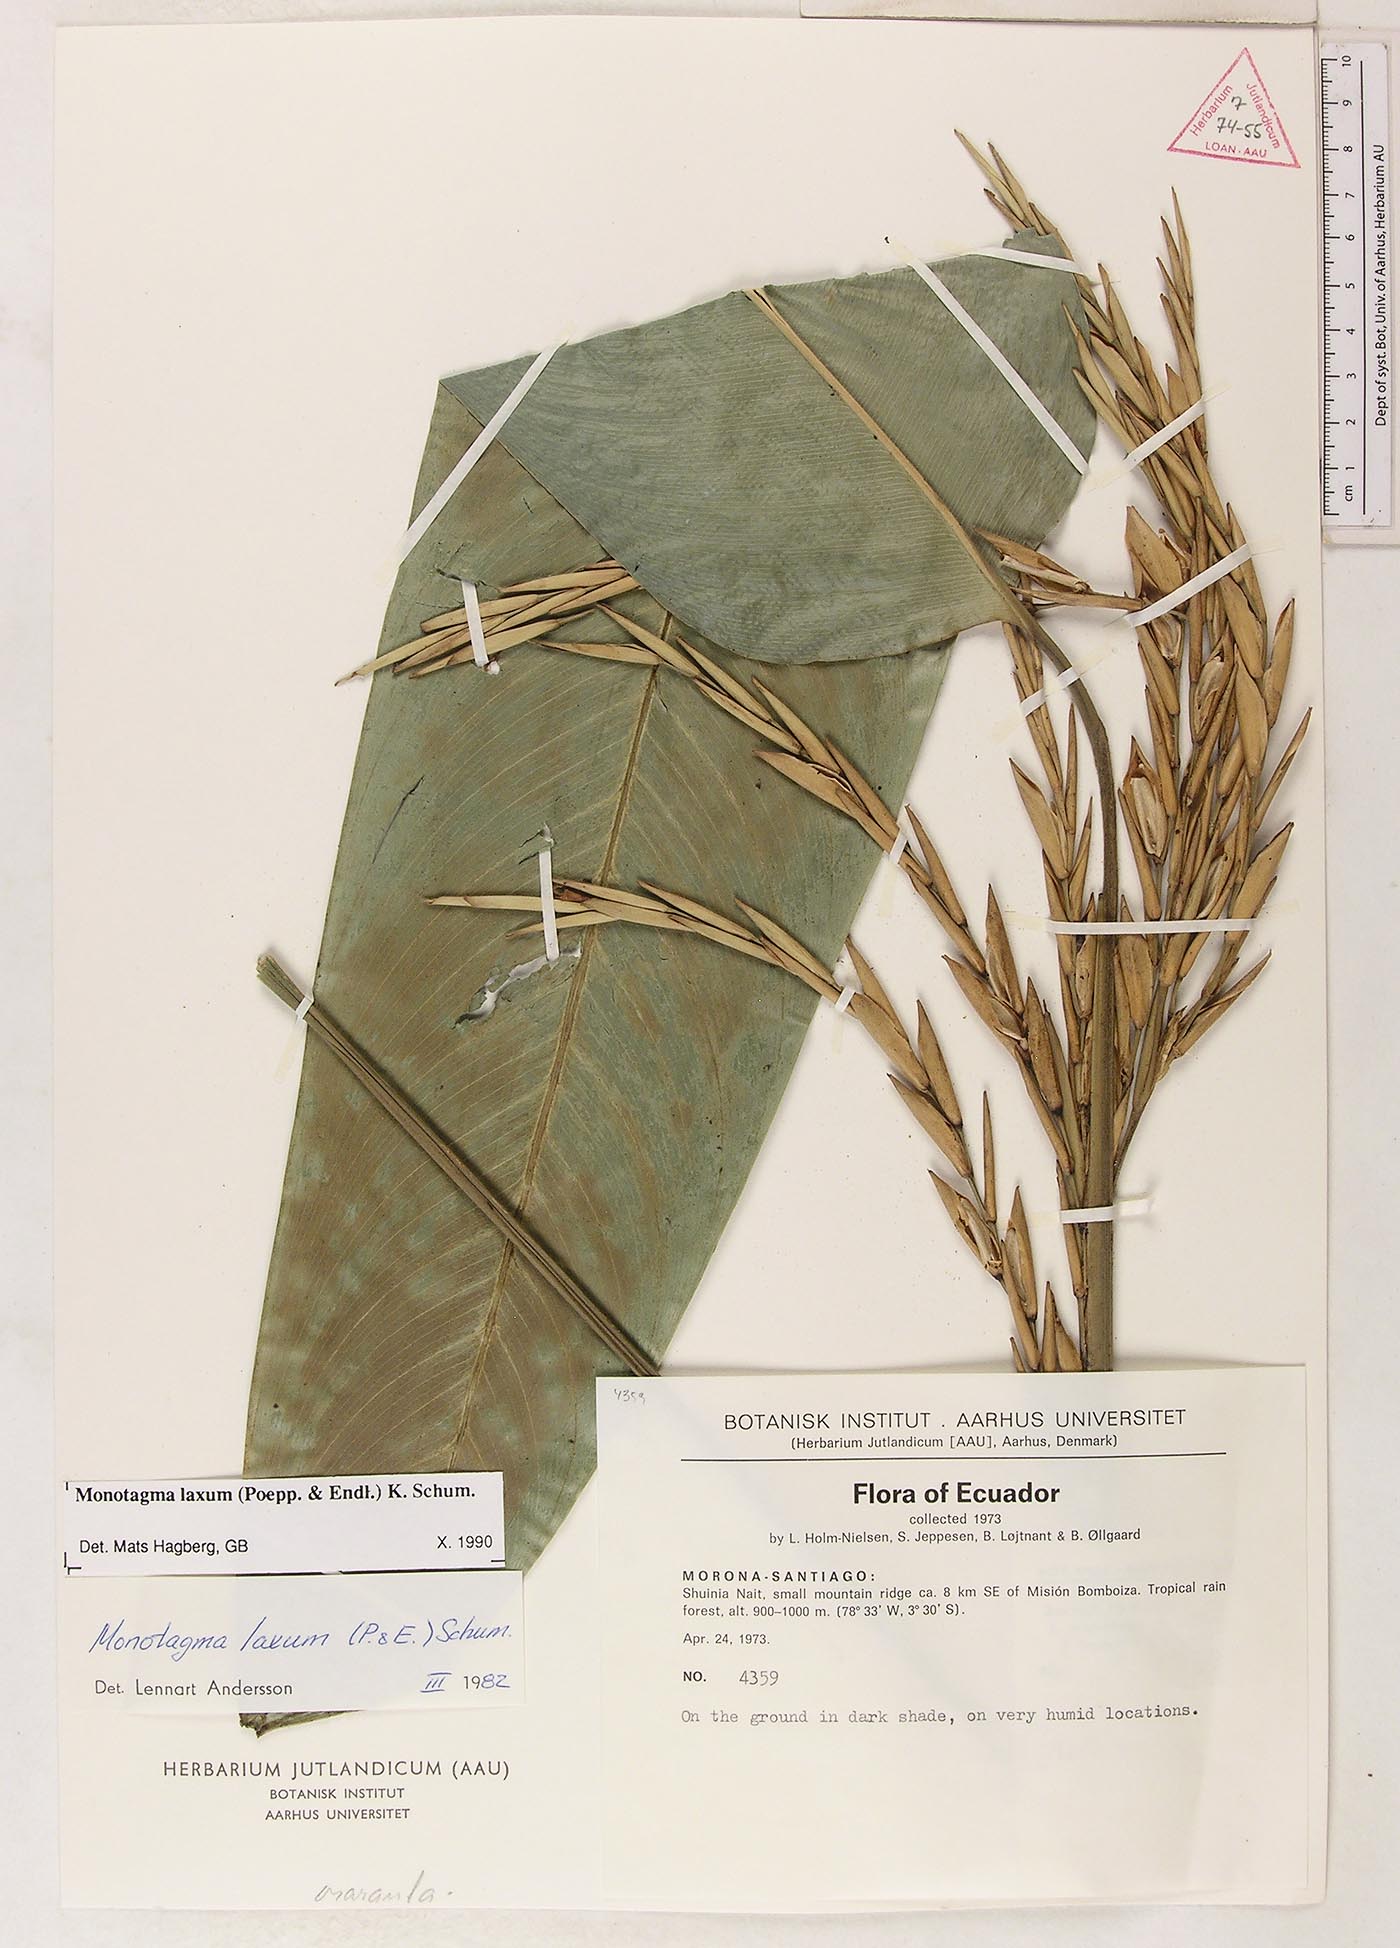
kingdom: Plantae
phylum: Tracheophyta
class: Liliopsida
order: Zingiberales
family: Marantaceae
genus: Monotagma
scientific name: Monotagma laxum
